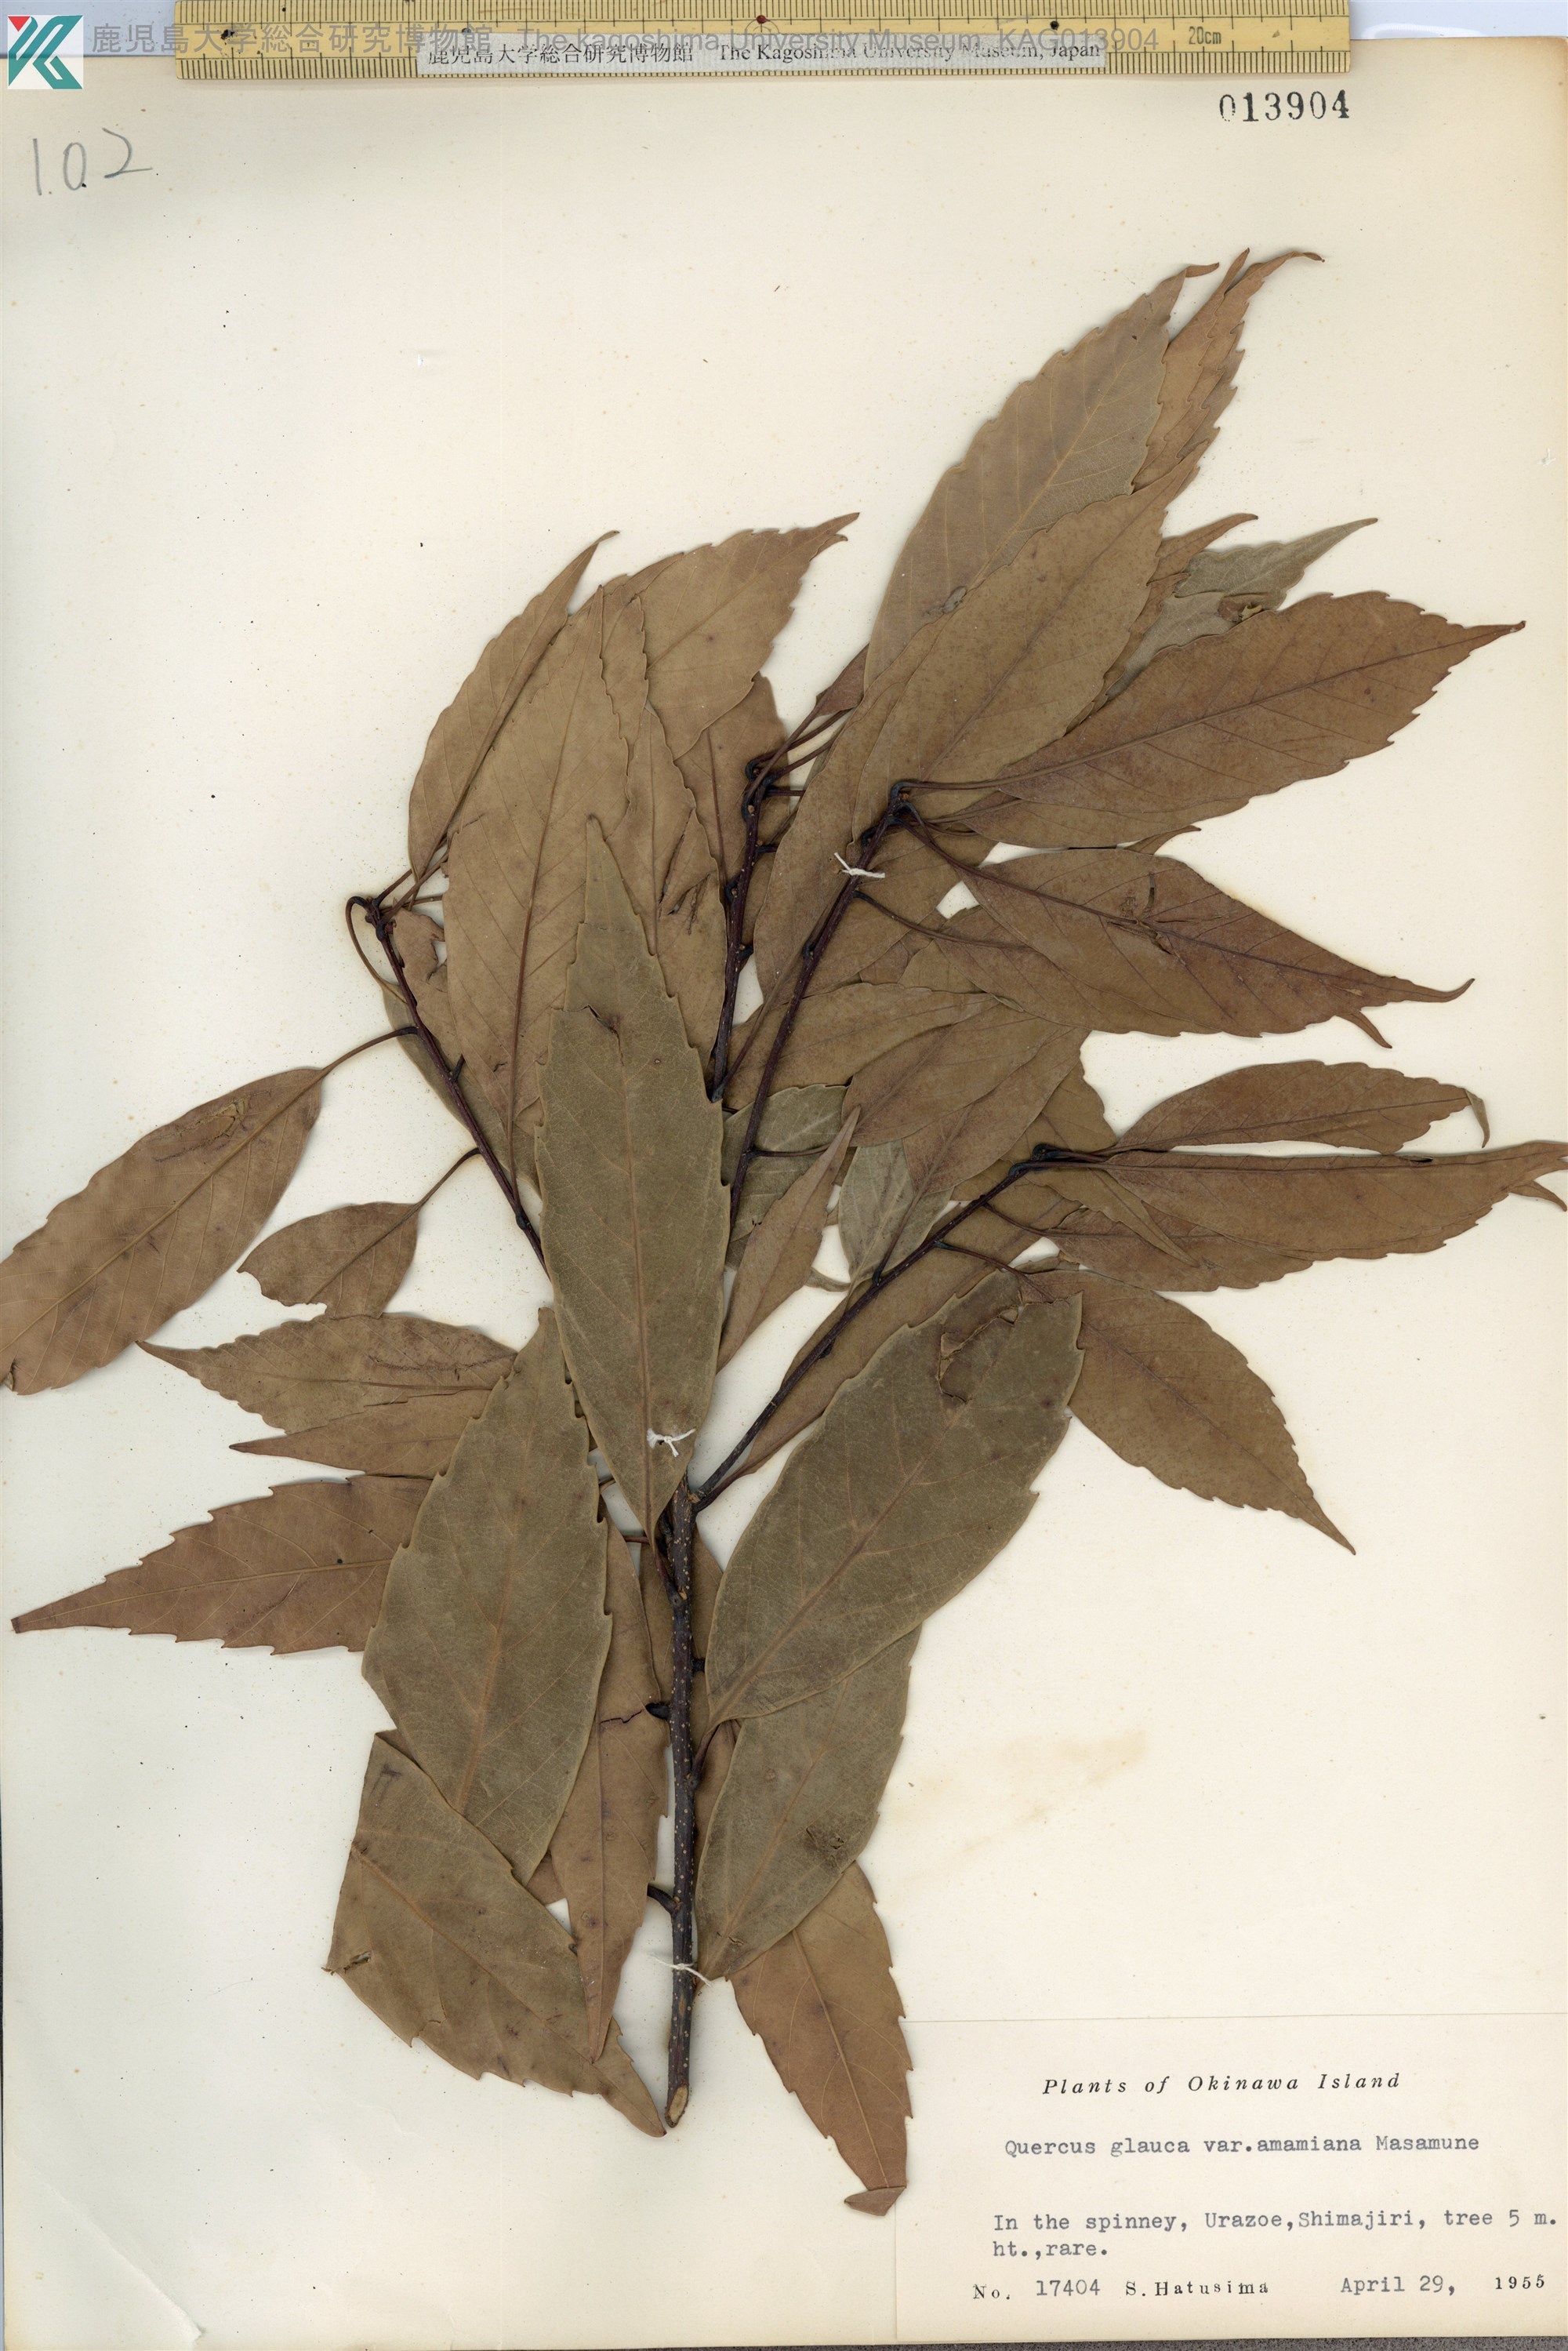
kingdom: Plantae
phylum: Tracheophyta
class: Magnoliopsida
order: Fagales
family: Fagaceae
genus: Quercus
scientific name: Quercus glauca
